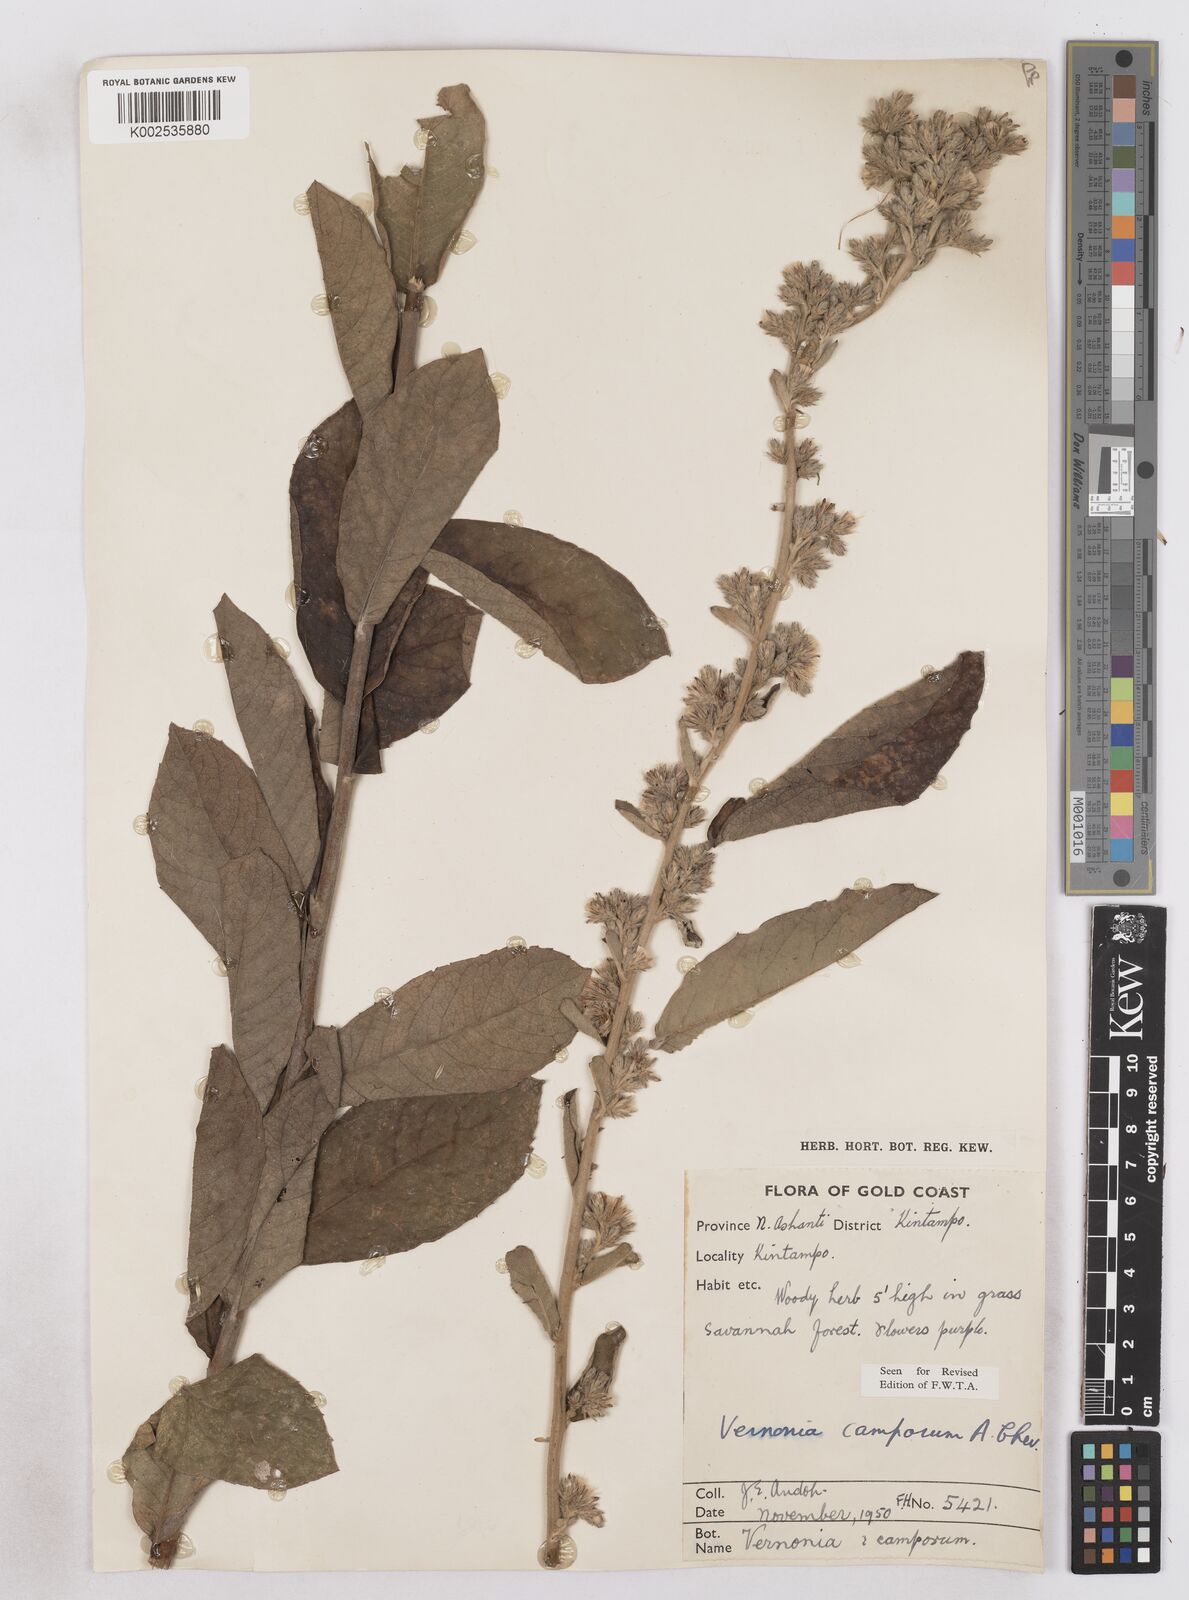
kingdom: Plantae
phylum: Tracheophyta
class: Magnoliopsida
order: Asterales
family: Asteraceae
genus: Vernoniastrum
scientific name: Vernoniastrum camporum
